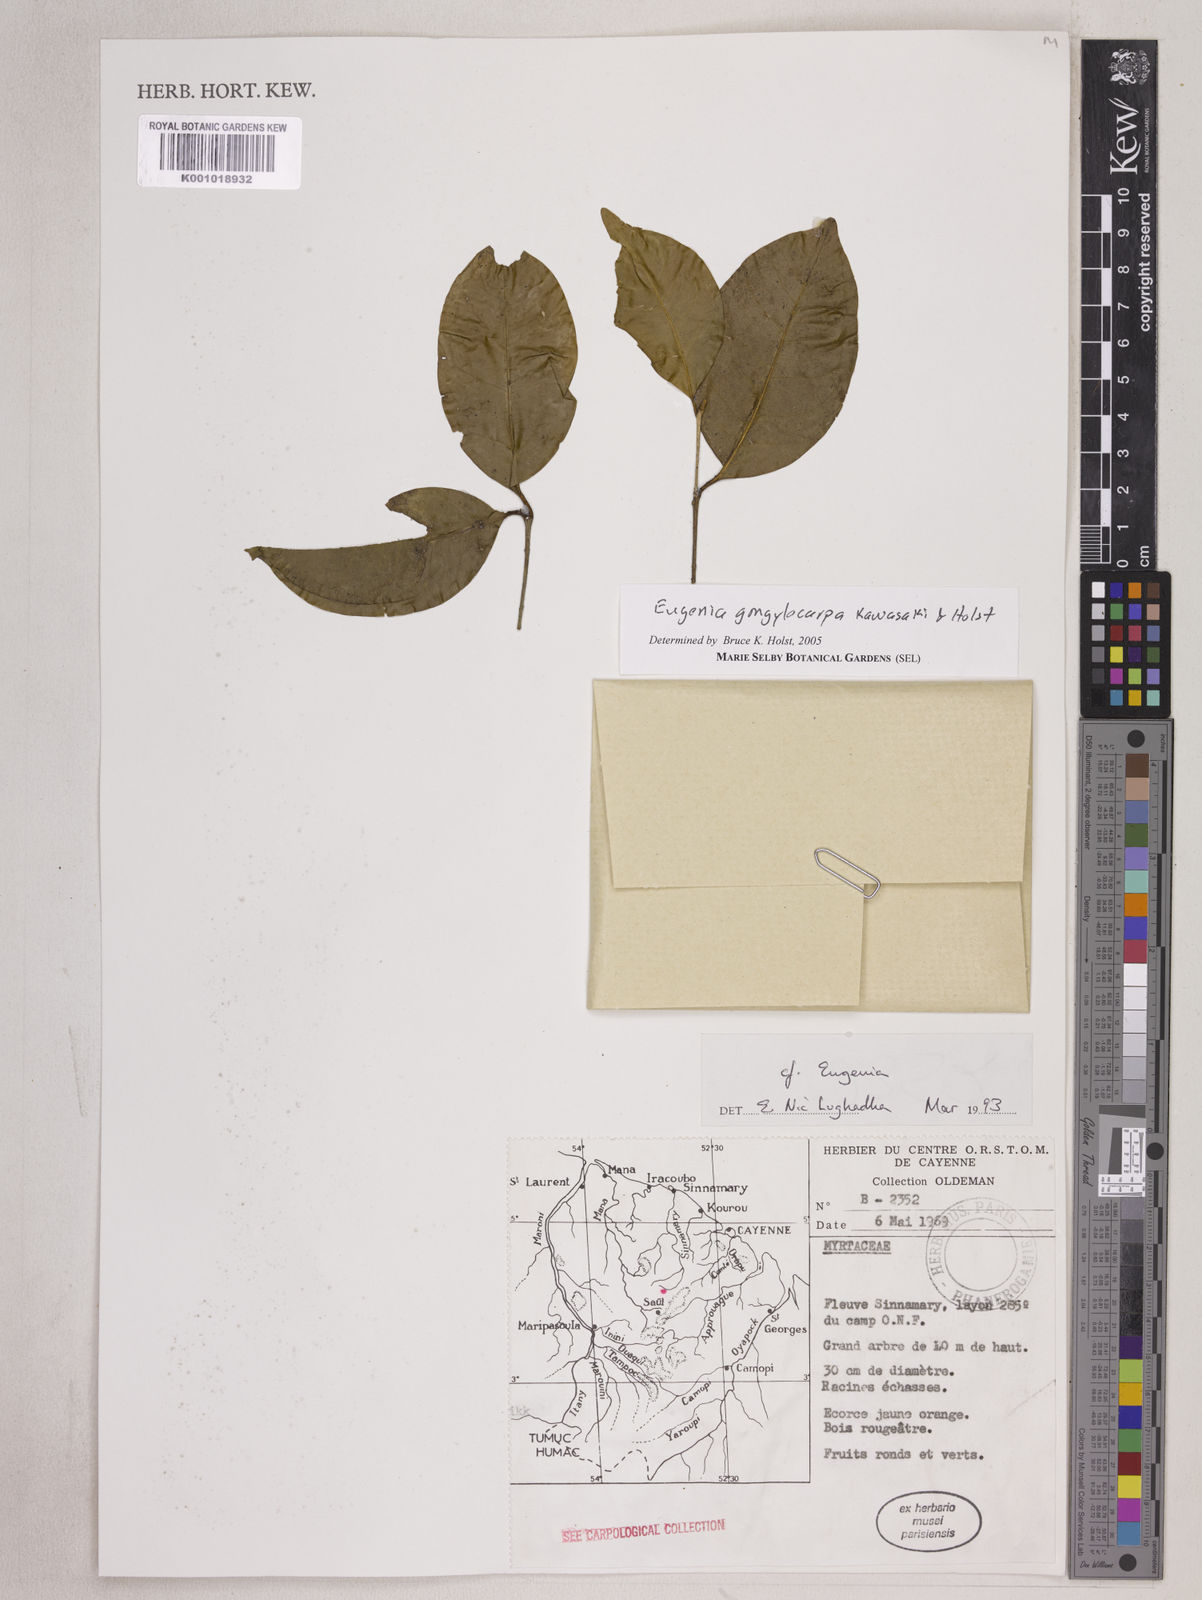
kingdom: Plantae
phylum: Tracheophyta
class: Magnoliopsida
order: Myrtales
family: Myrtaceae
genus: Eugenia
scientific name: Eugenia gongylocarpa
